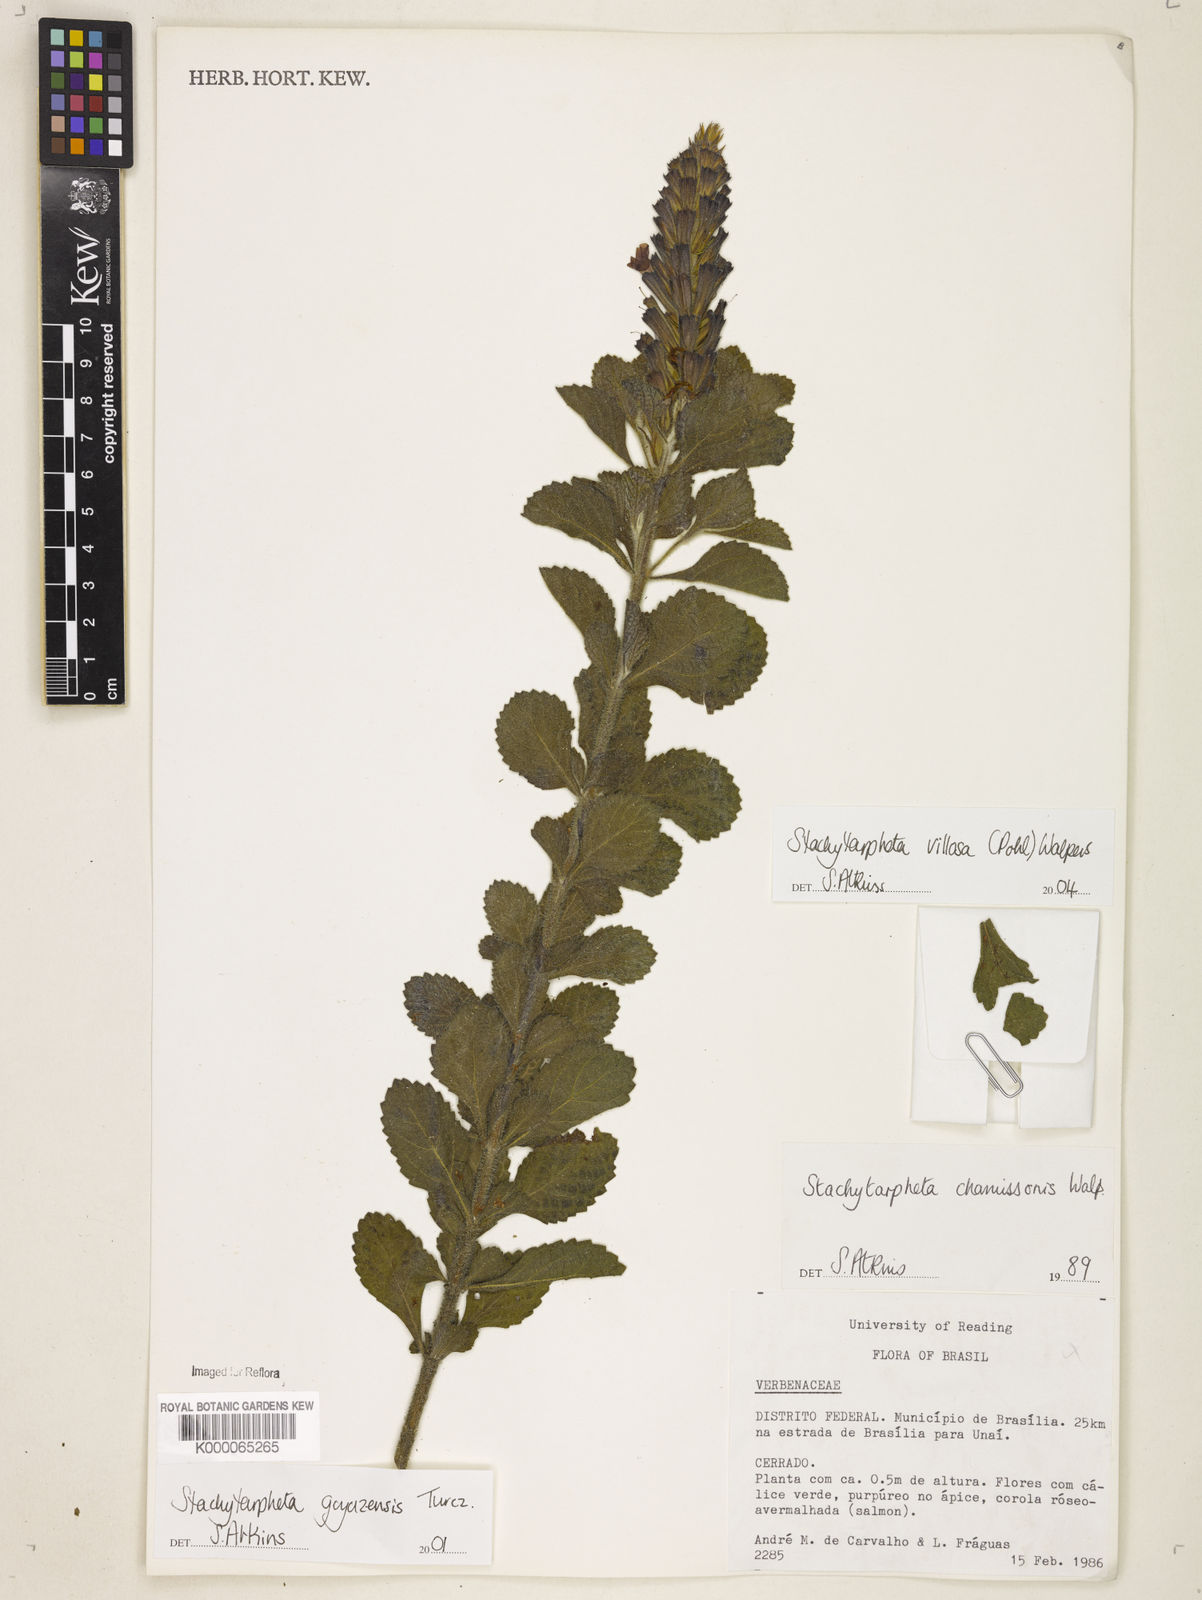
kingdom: Plantae
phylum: Tracheophyta
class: Magnoliopsida
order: Lamiales
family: Verbenaceae
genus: Stachytarpheta
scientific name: Stachytarpheta villosa
